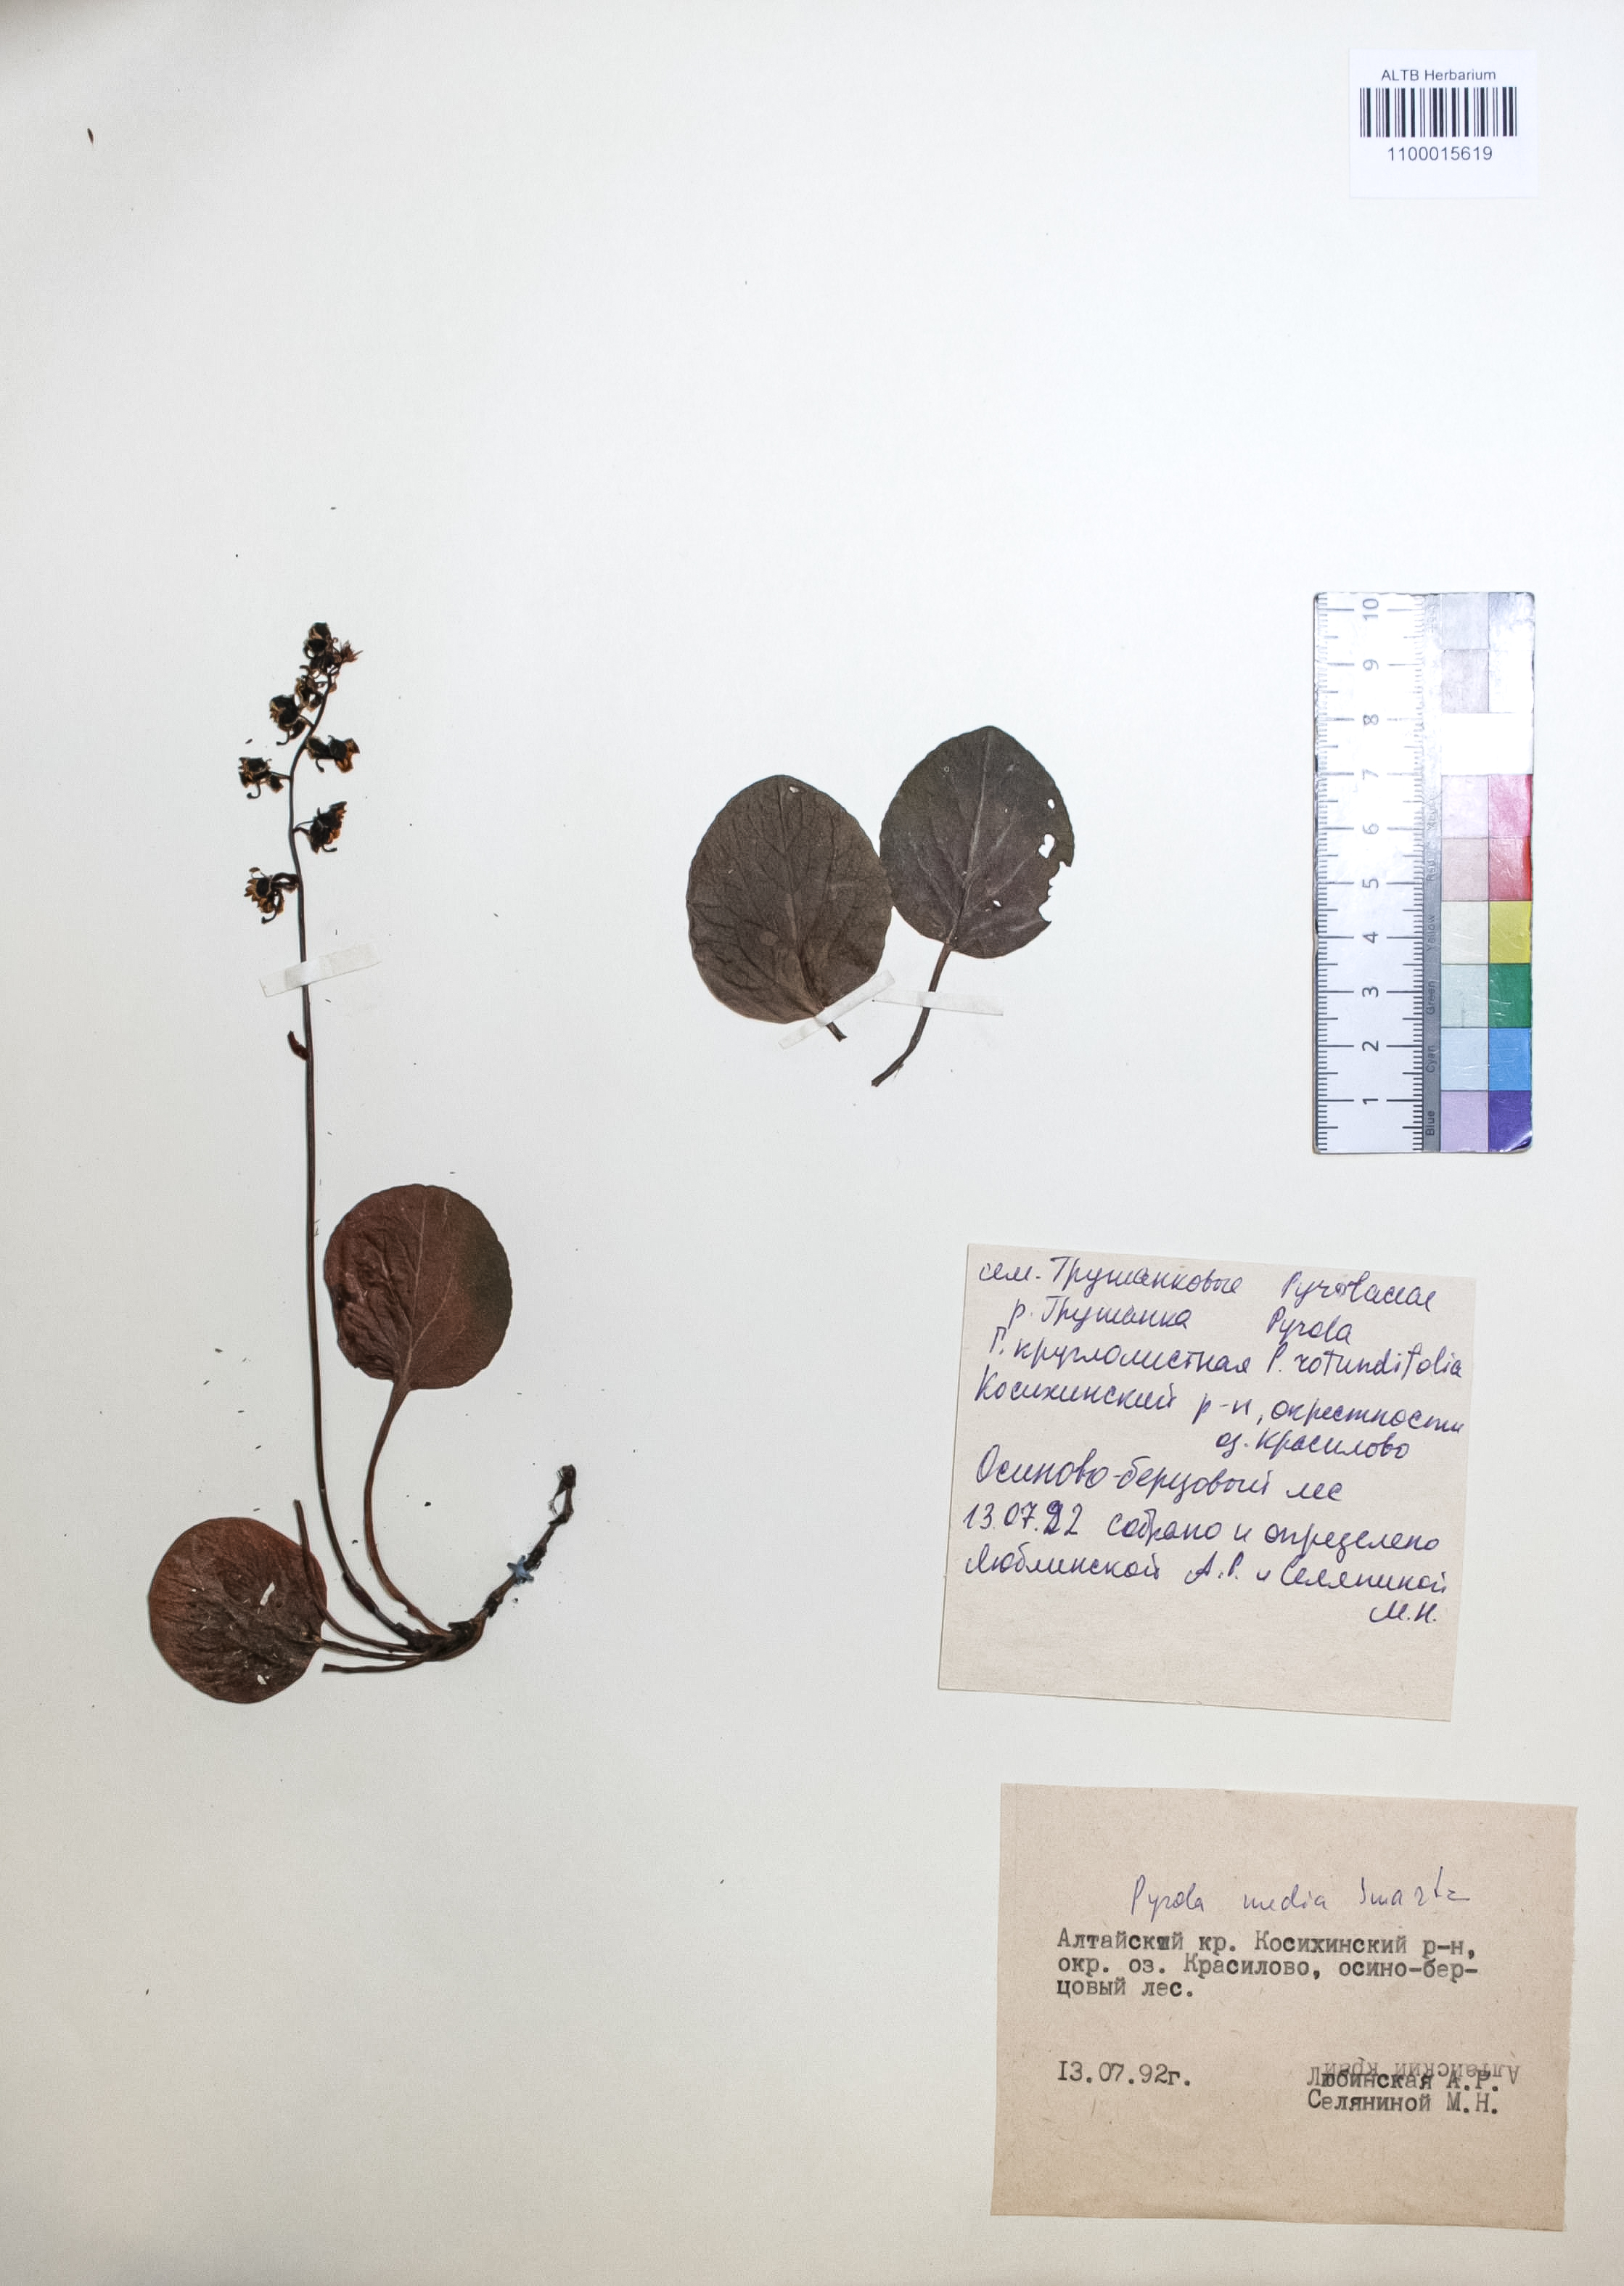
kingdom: Plantae
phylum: Tracheophyta
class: Magnoliopsida
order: Ericales
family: Ericaceae
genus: Pyrola
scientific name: Pyrola media
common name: Intermediate wintergreen
